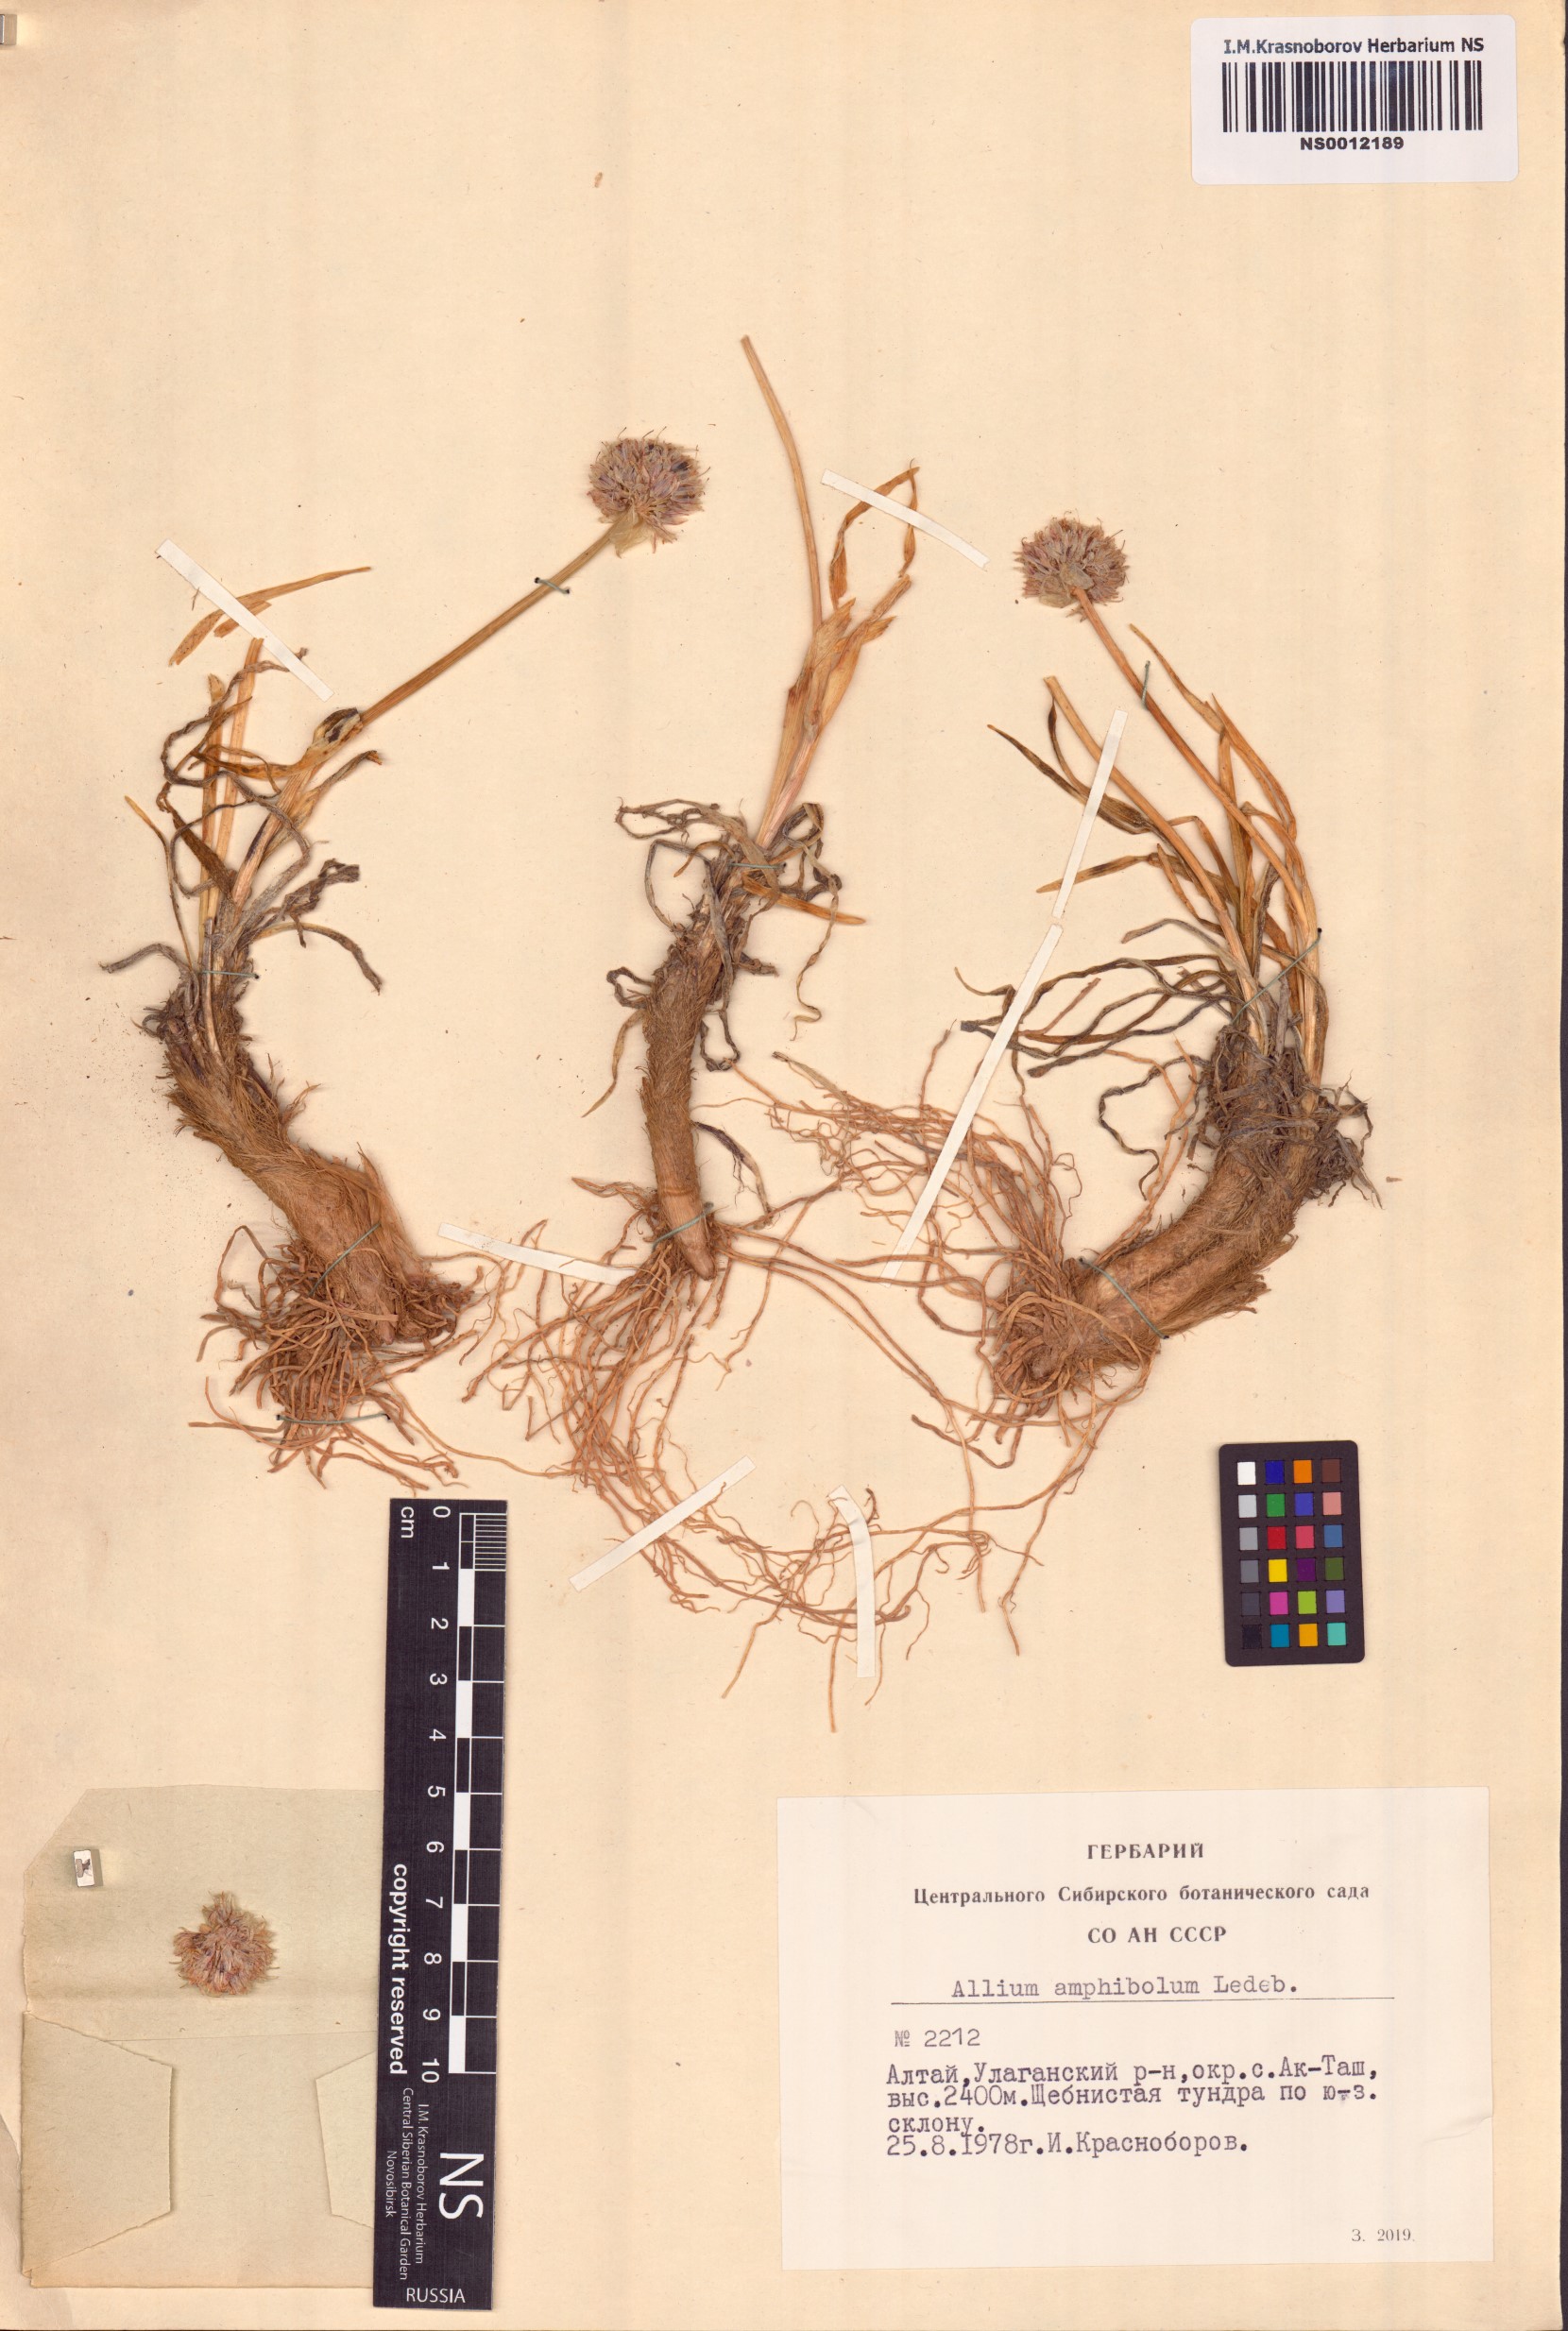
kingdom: Plantae
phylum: Tracheophyta
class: Liliopsida
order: Asparagales
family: Amaryllidaceae
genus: Allium
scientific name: Allium amphibolum
